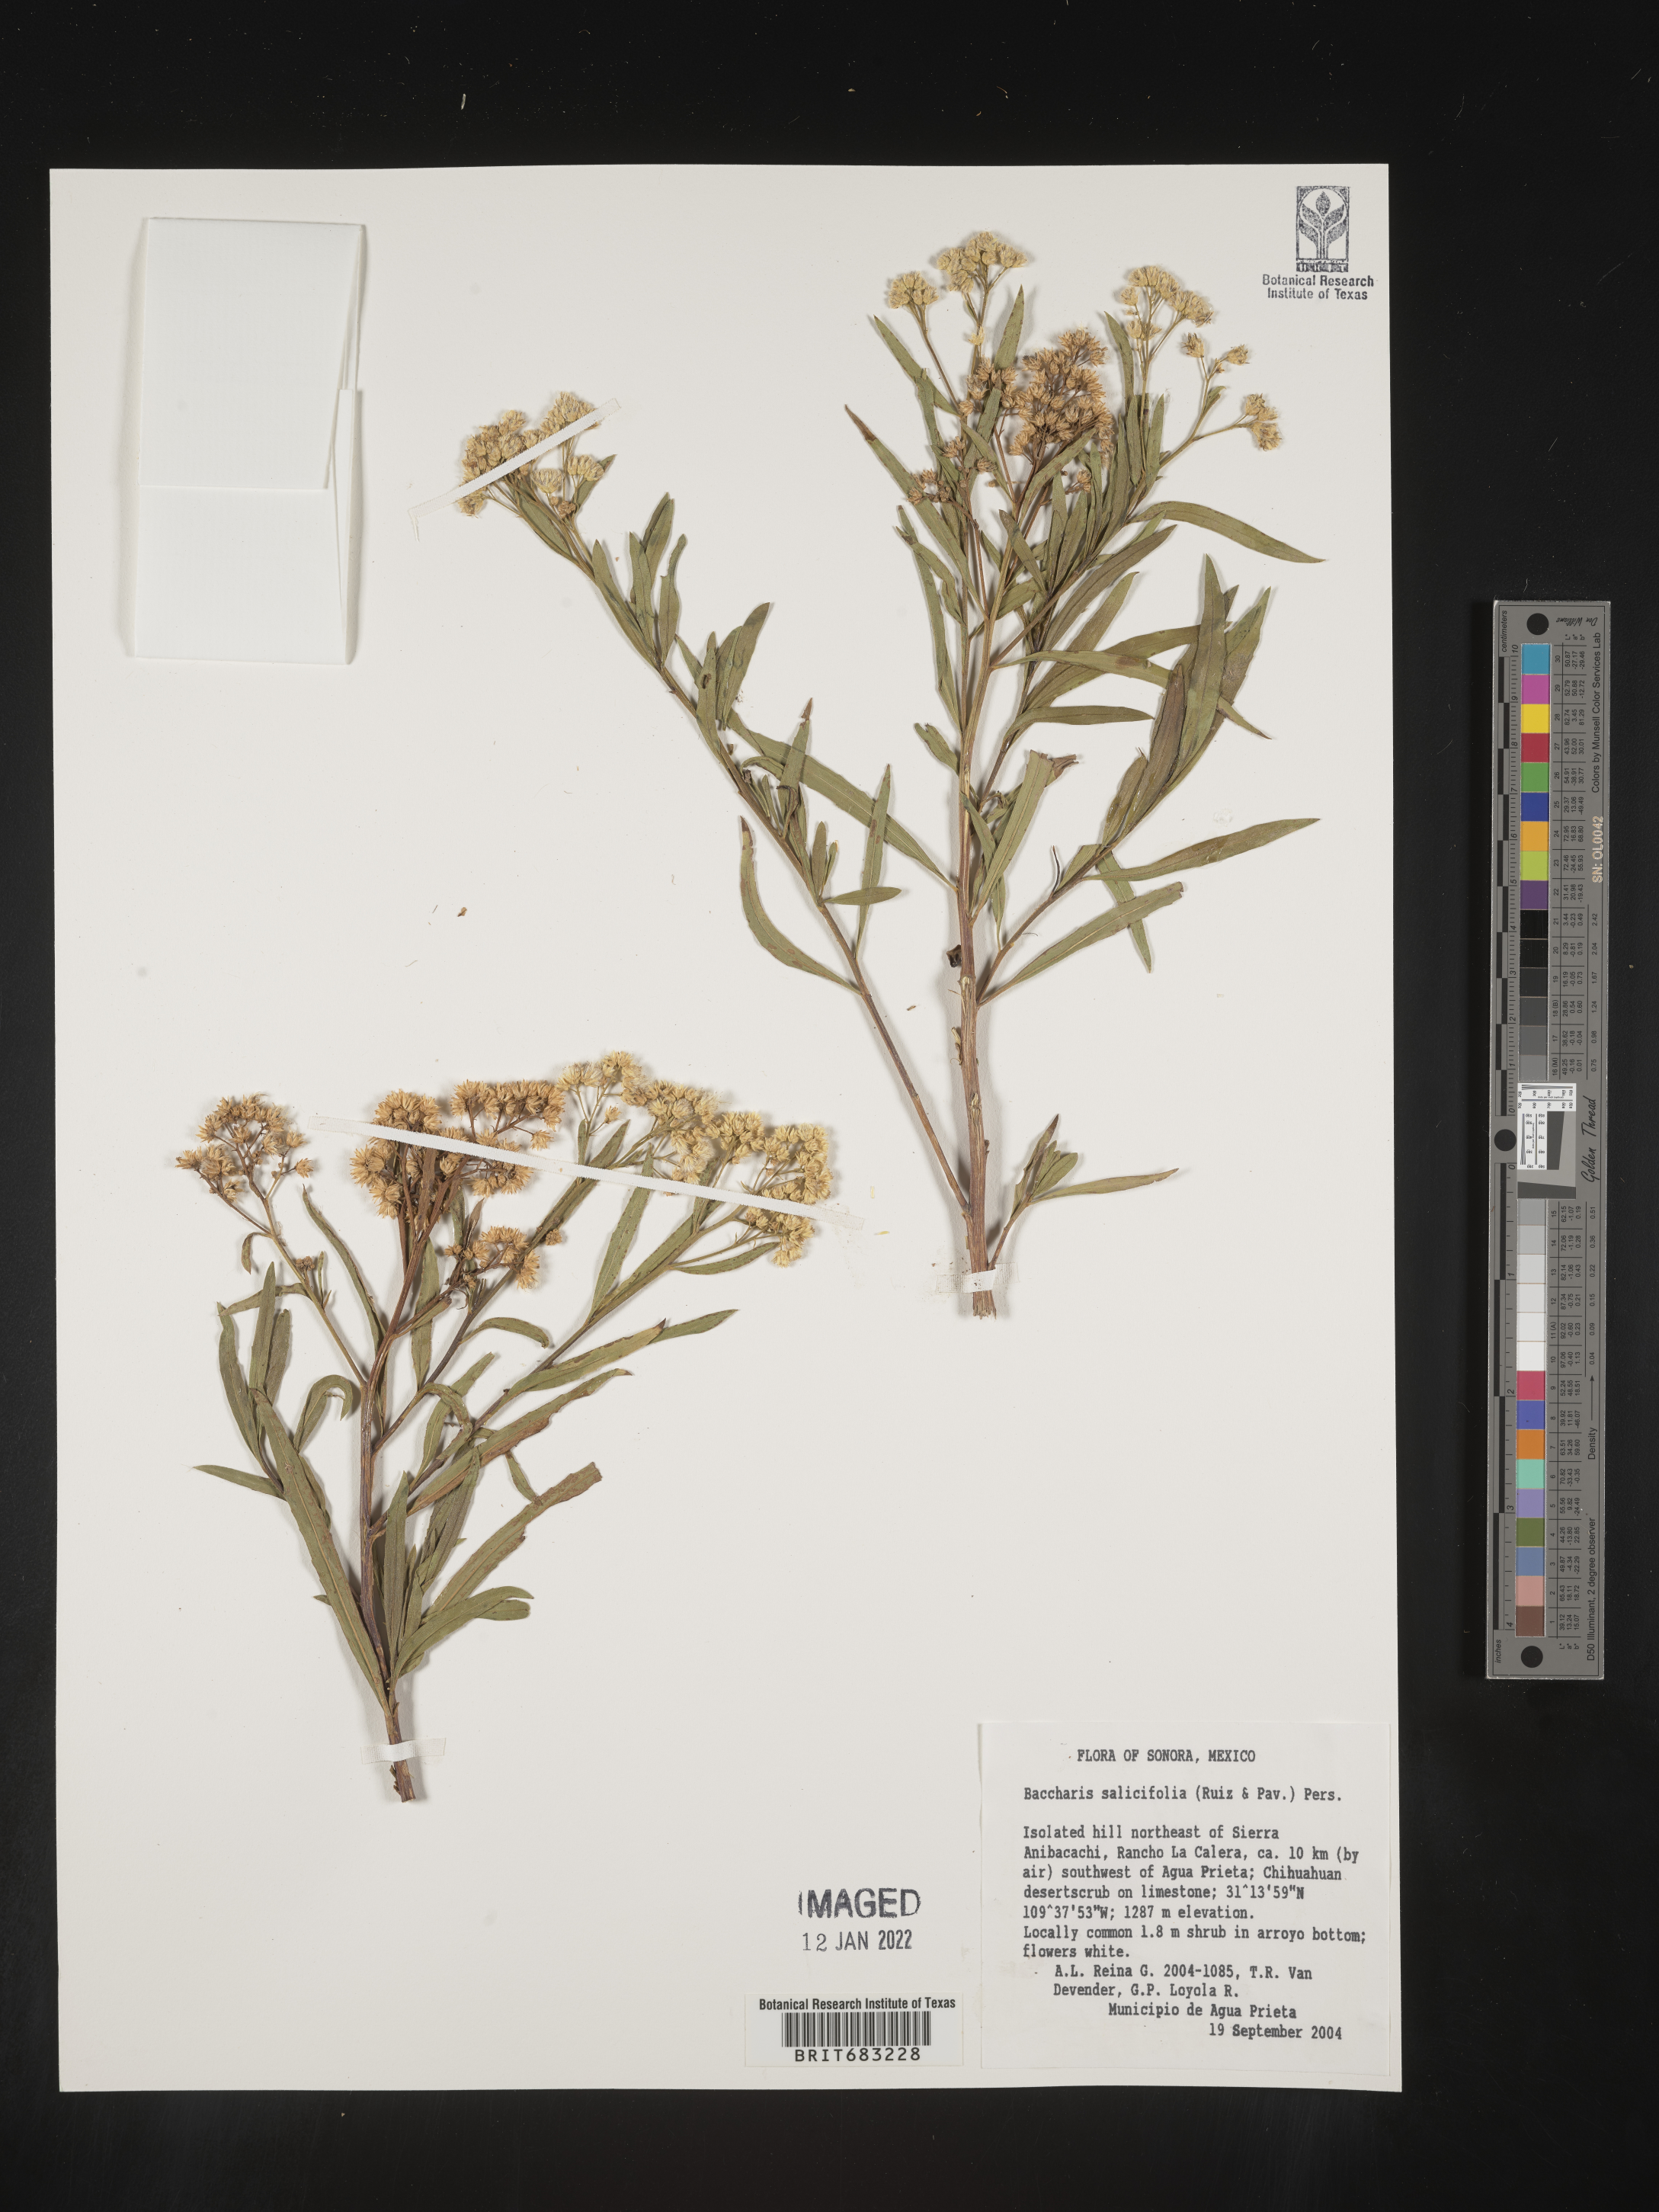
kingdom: Plantae
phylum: Tracheophyta
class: Magnoliopsida
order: Asterales
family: Asteraceae
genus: Baccharis
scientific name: Baccharis salicifolia
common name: Sticky baccharis
